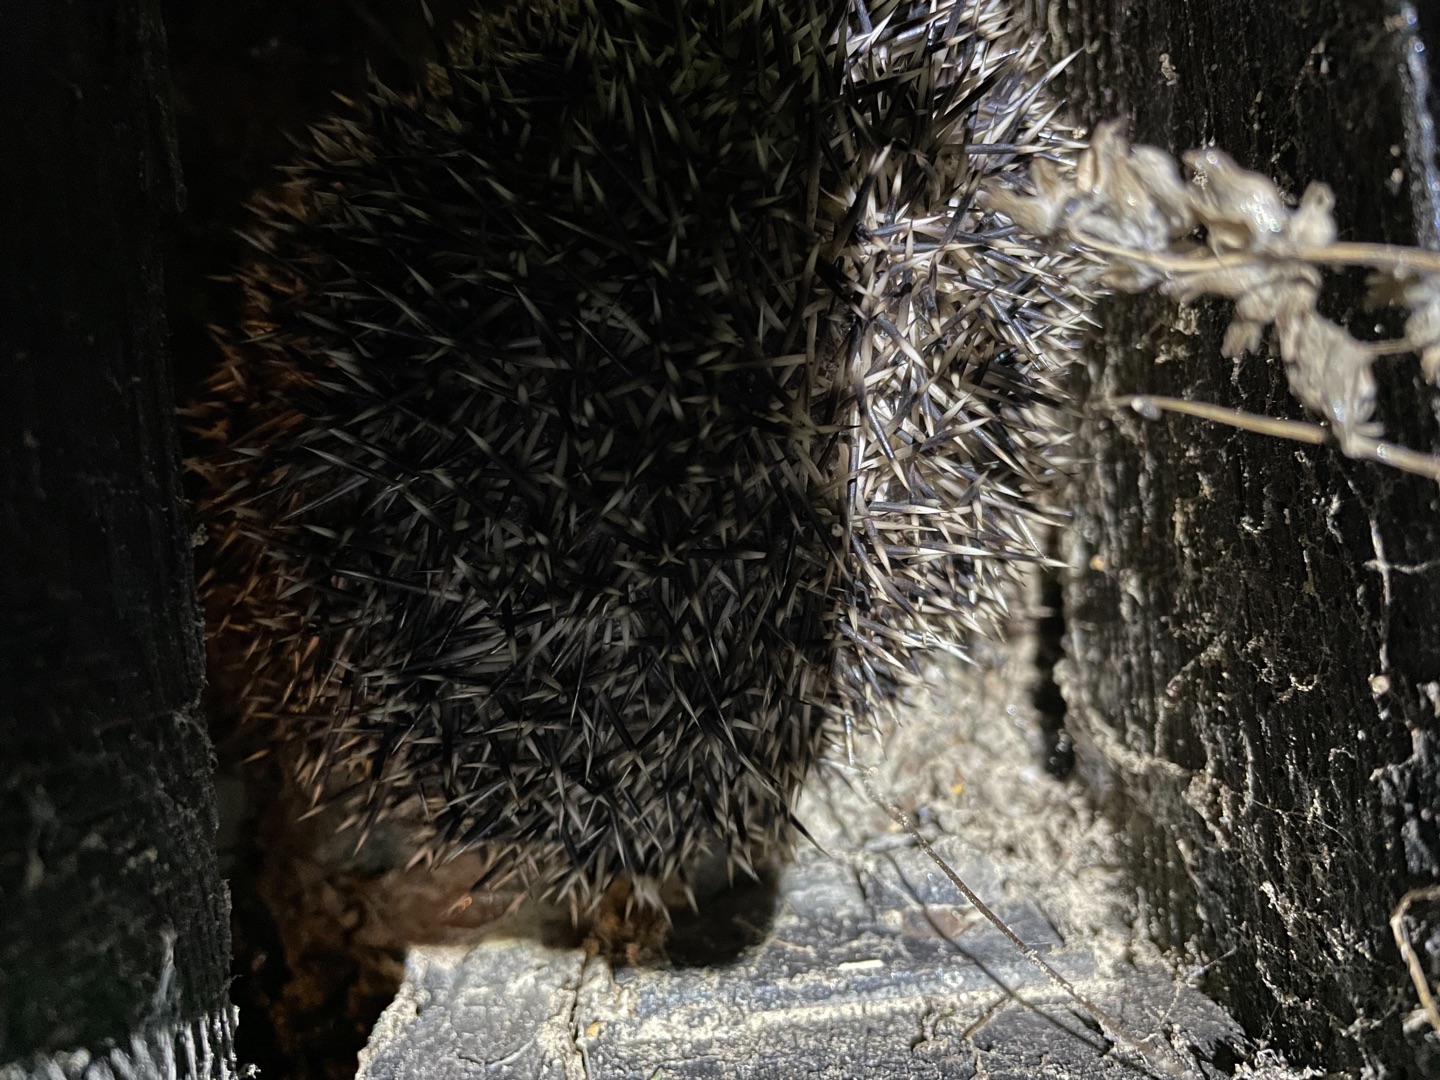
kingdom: Animalia
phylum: Chordata
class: Mammalia
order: Erinaceomorpha
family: Erinaceidae
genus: Erinaceus
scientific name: Erinaceus europaeus
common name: Pindsvin
